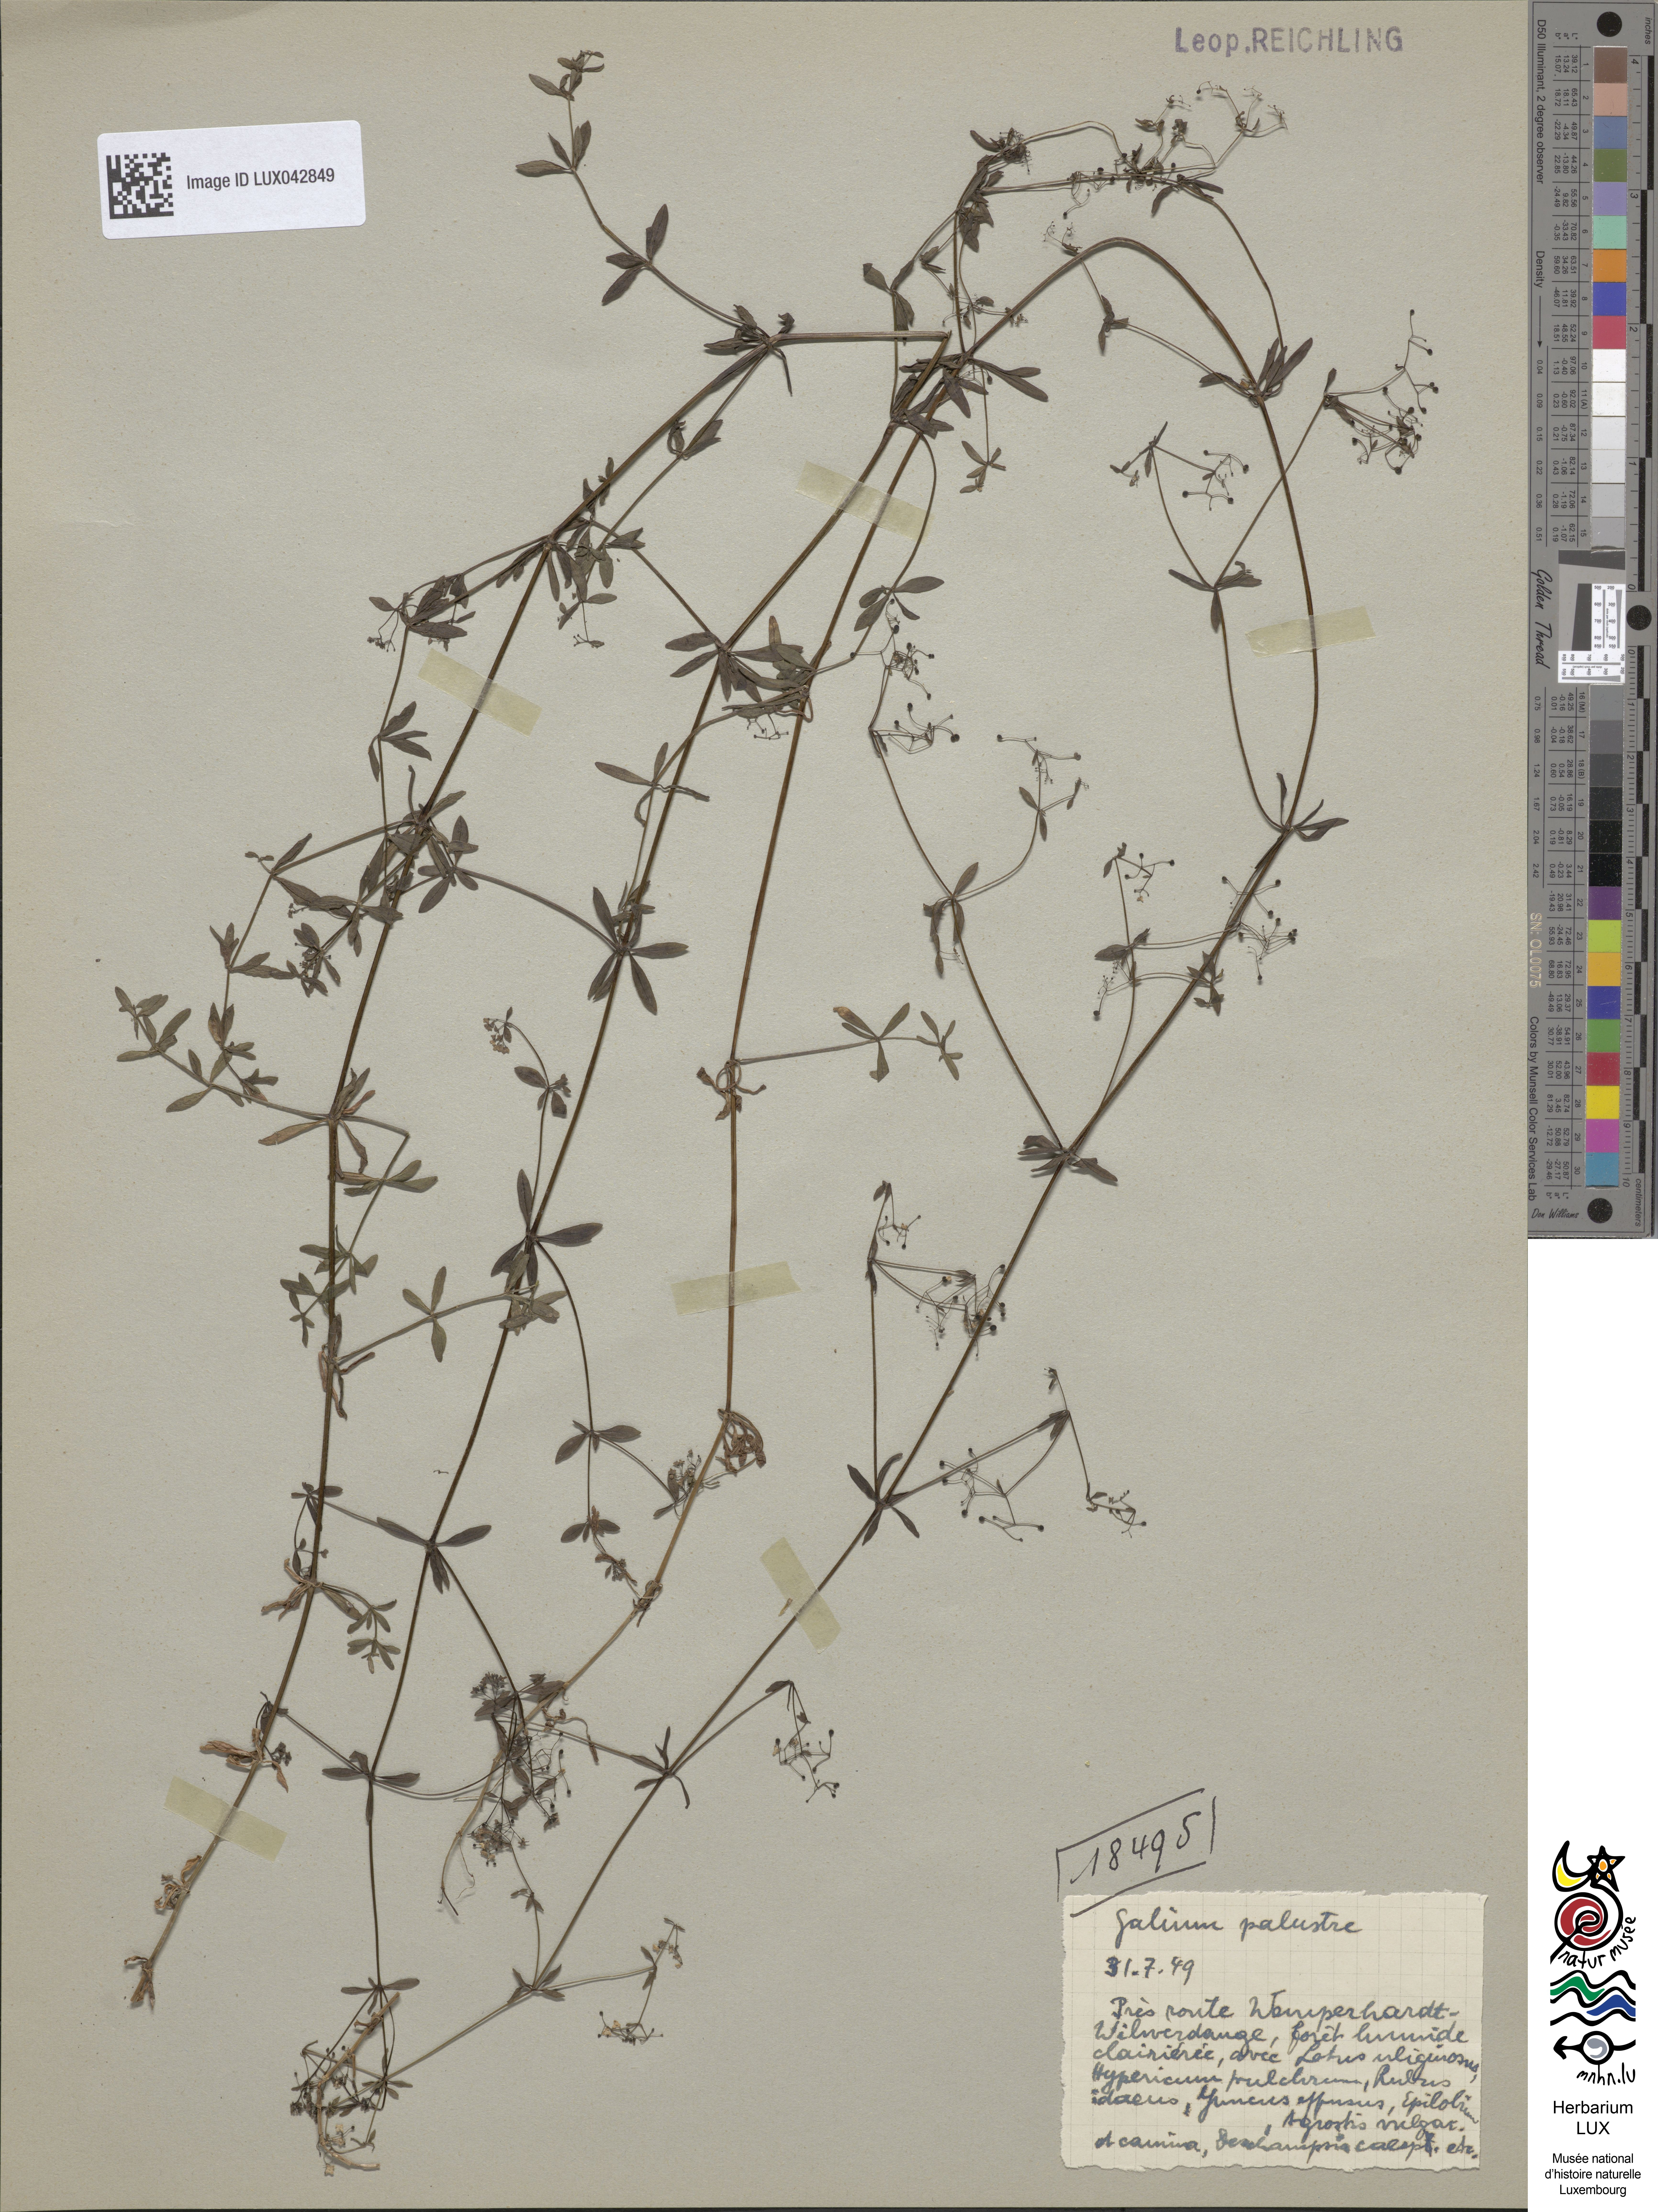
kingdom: Plantae
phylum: Tracheophyta
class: Magnoliopsida
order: Gentianales
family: Rubiaceae
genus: Galium
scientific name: Galium palustre
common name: Common marsh-bedstraw
